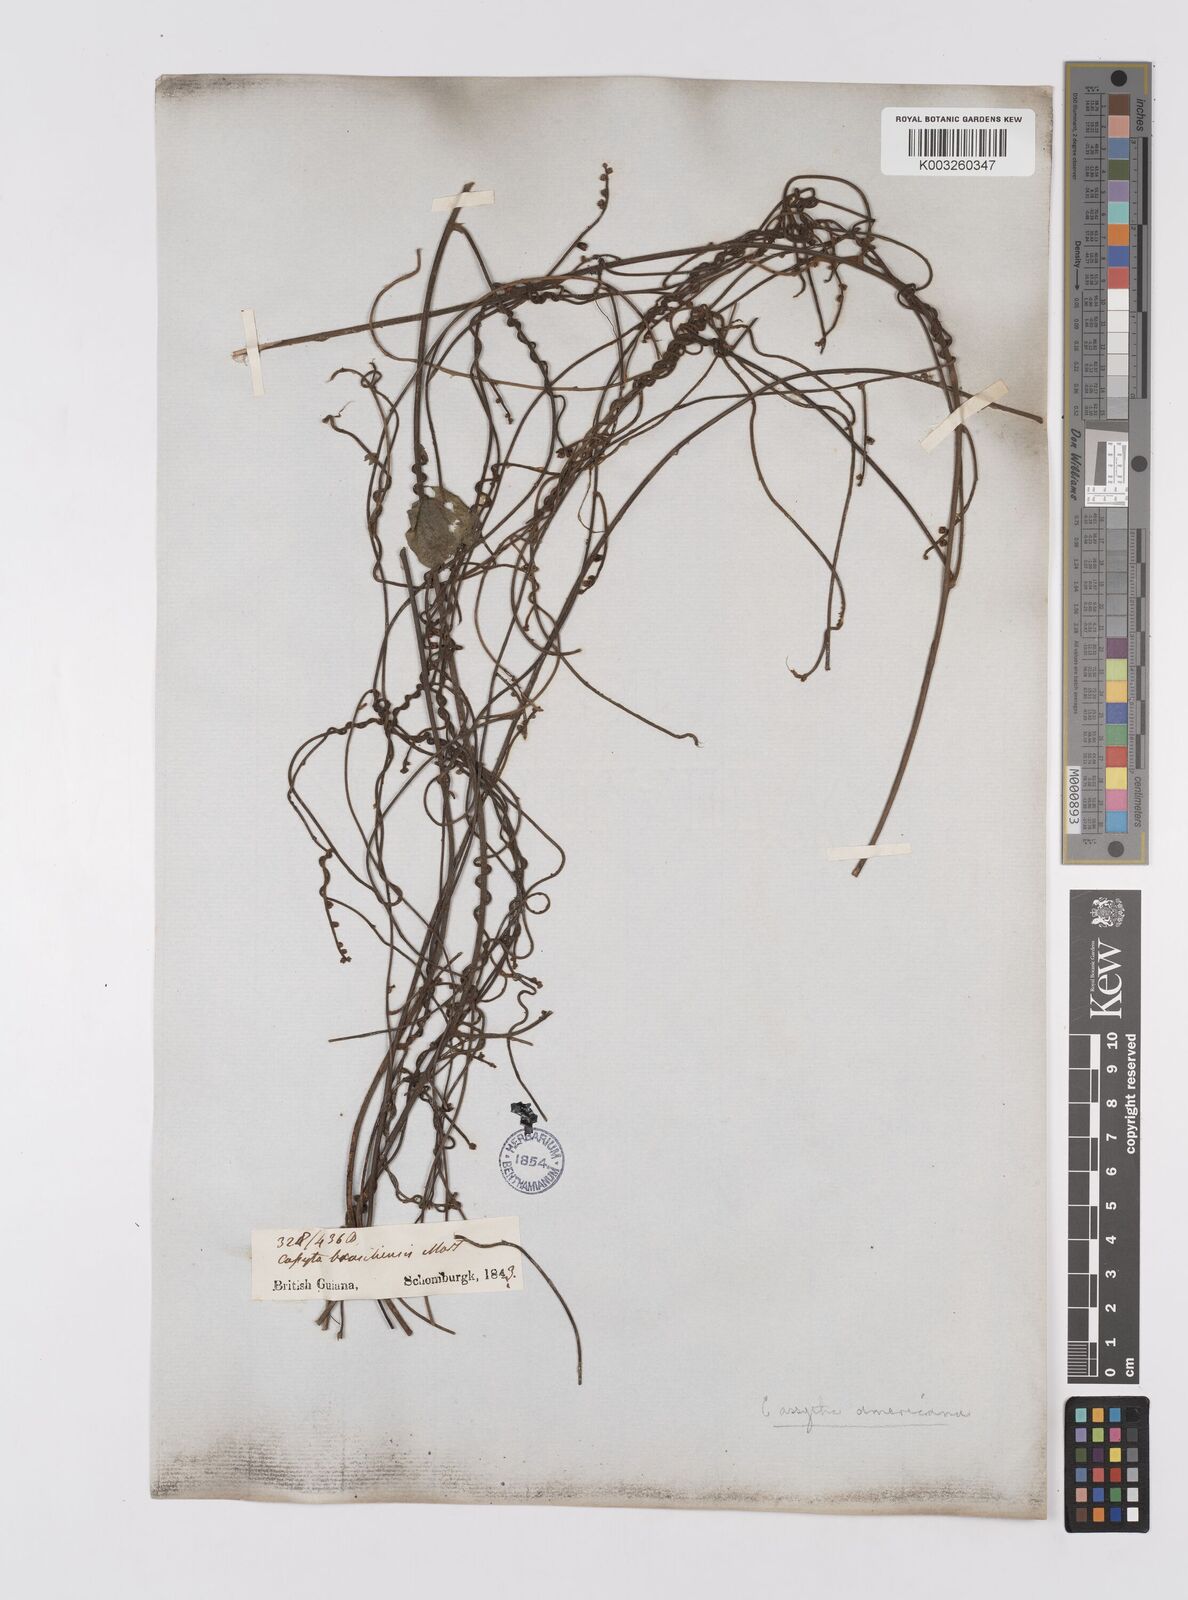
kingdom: Plantae
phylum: Tracheophyta
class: Magnoliopsida
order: Laurales
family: Lauraceae
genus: Cassytha
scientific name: Cassytha filiformis
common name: Dodder-laurel
